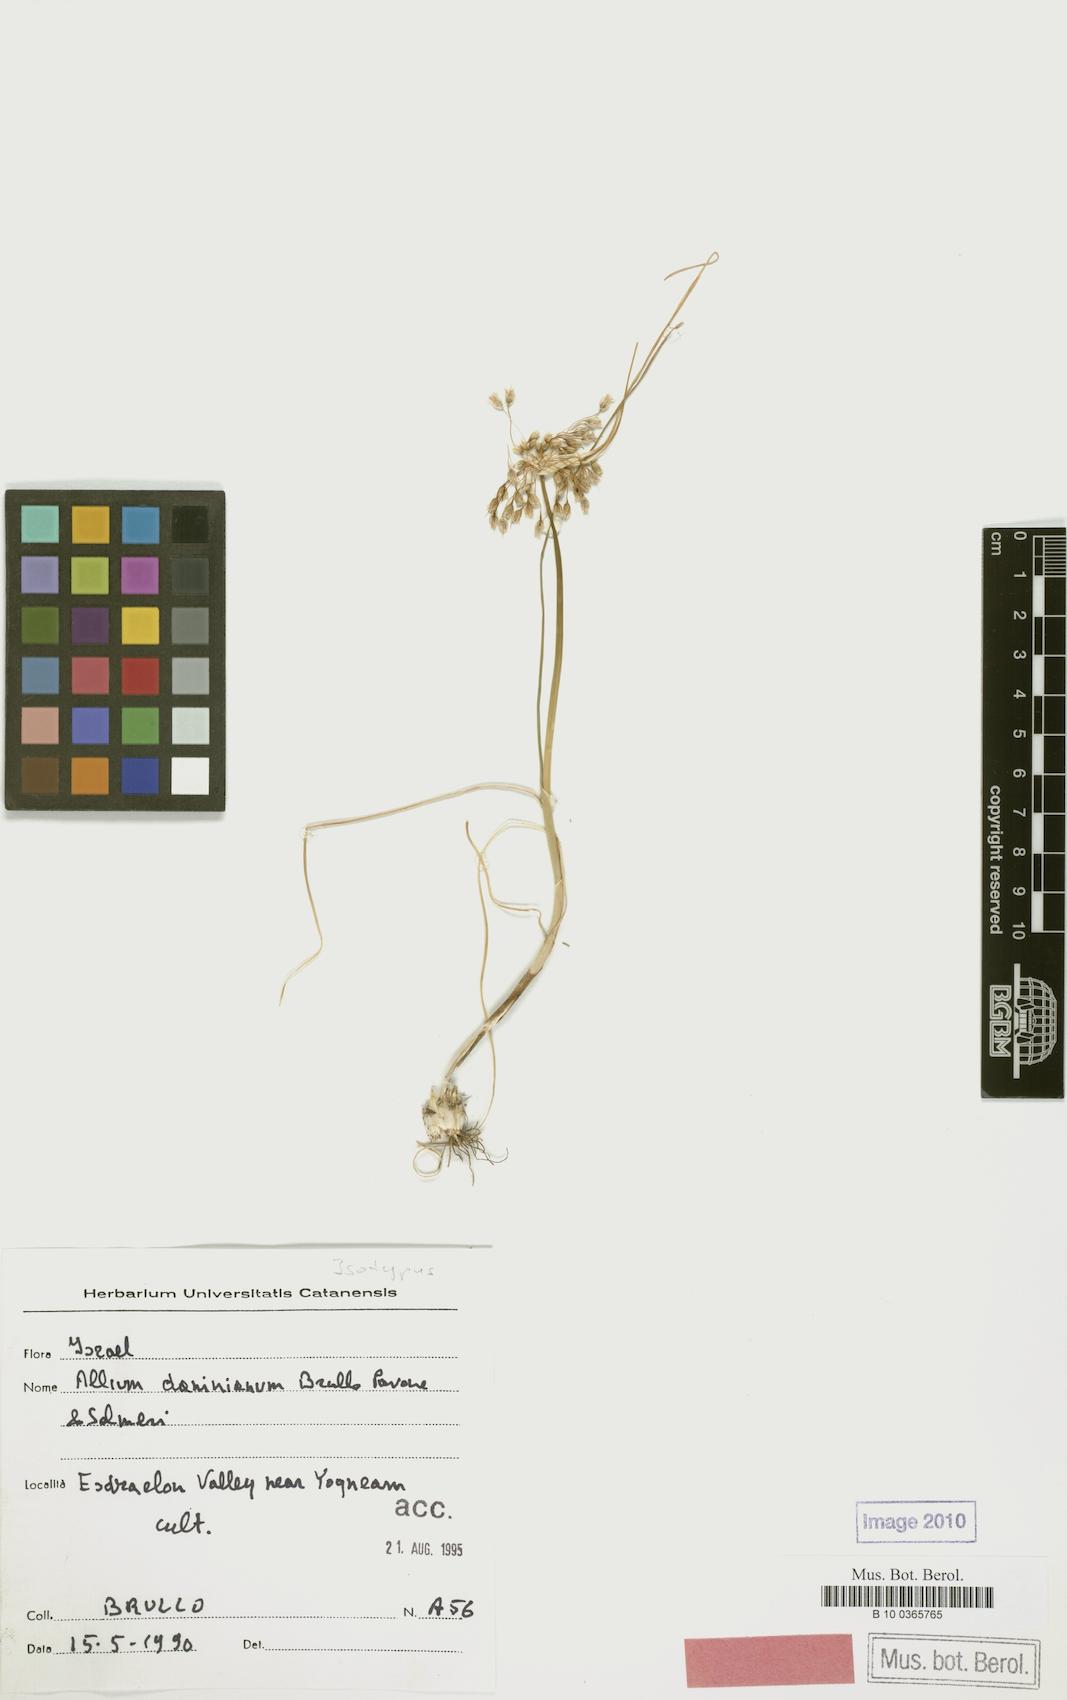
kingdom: Plantae
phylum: Tracheophyta
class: Liliopsida
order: Asparagales
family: Amaryllidaceae
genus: Allium
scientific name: Allium daninianum
